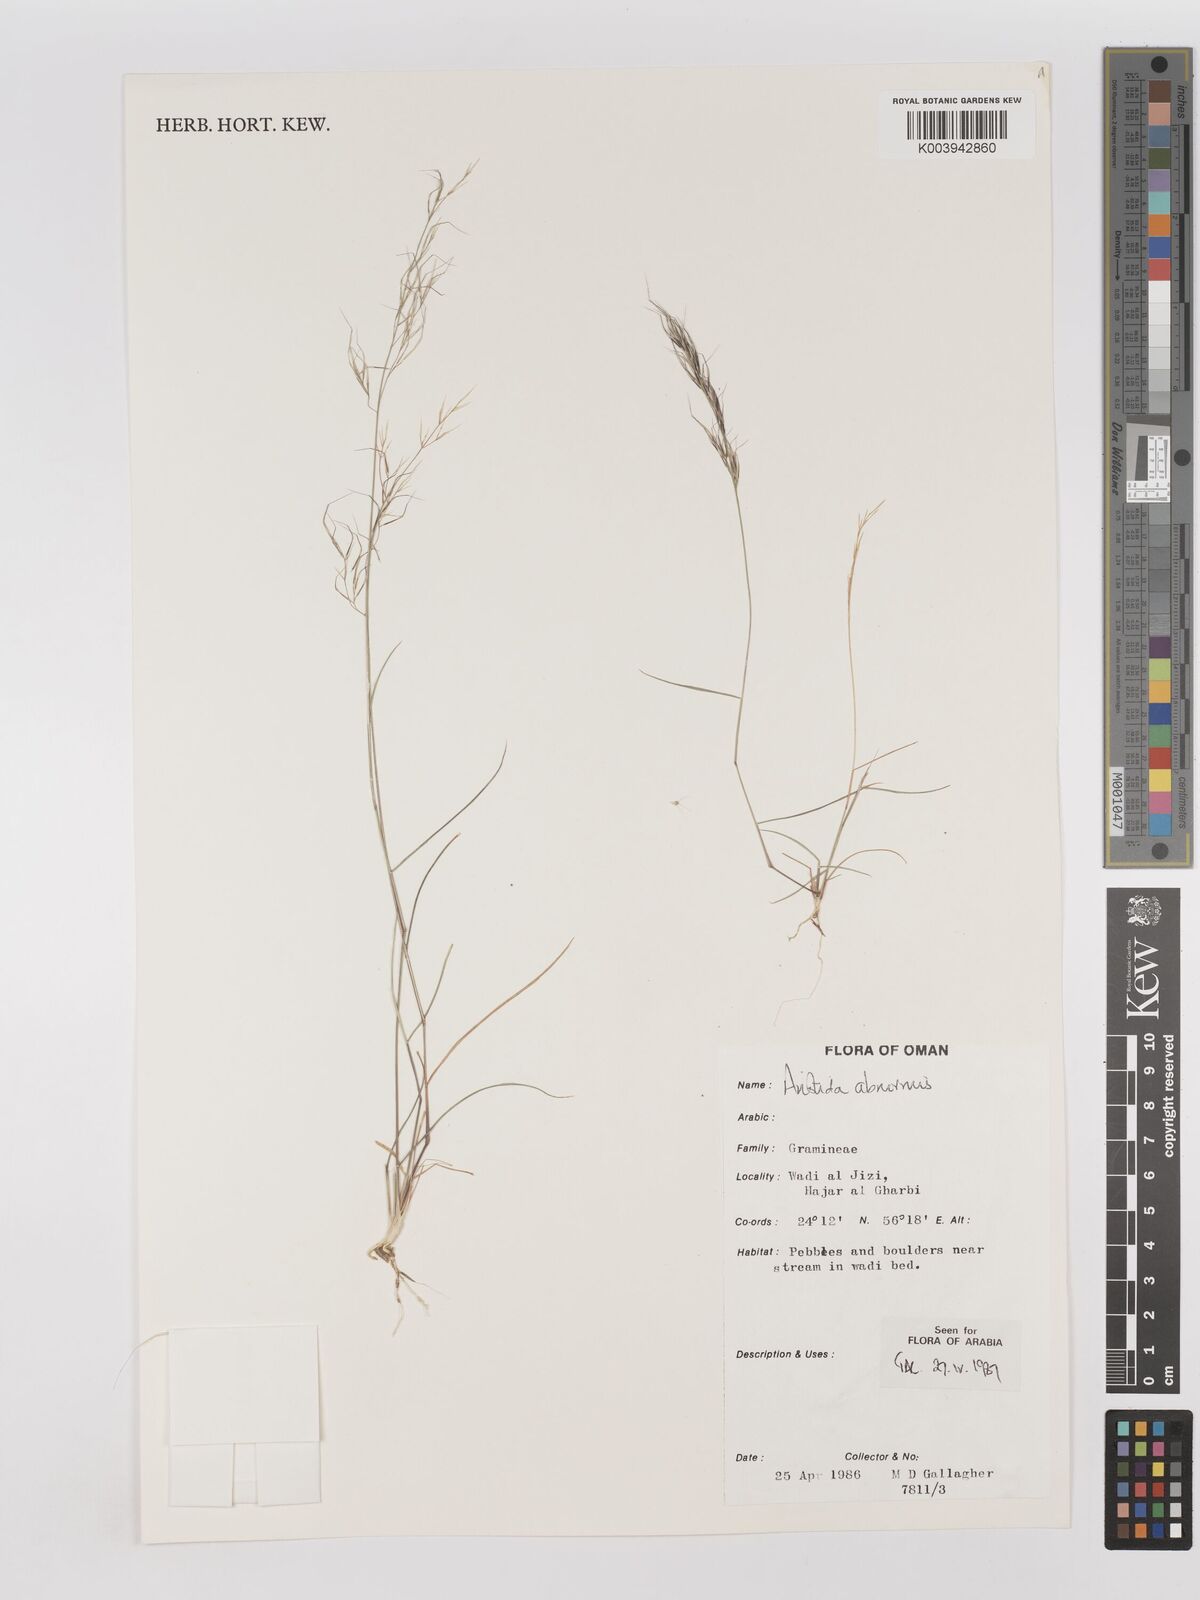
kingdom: Plantae
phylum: Tracheophyta
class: Liliopsida
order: Poales
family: Poaceae
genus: Aristida
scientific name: Aristida abnormis
